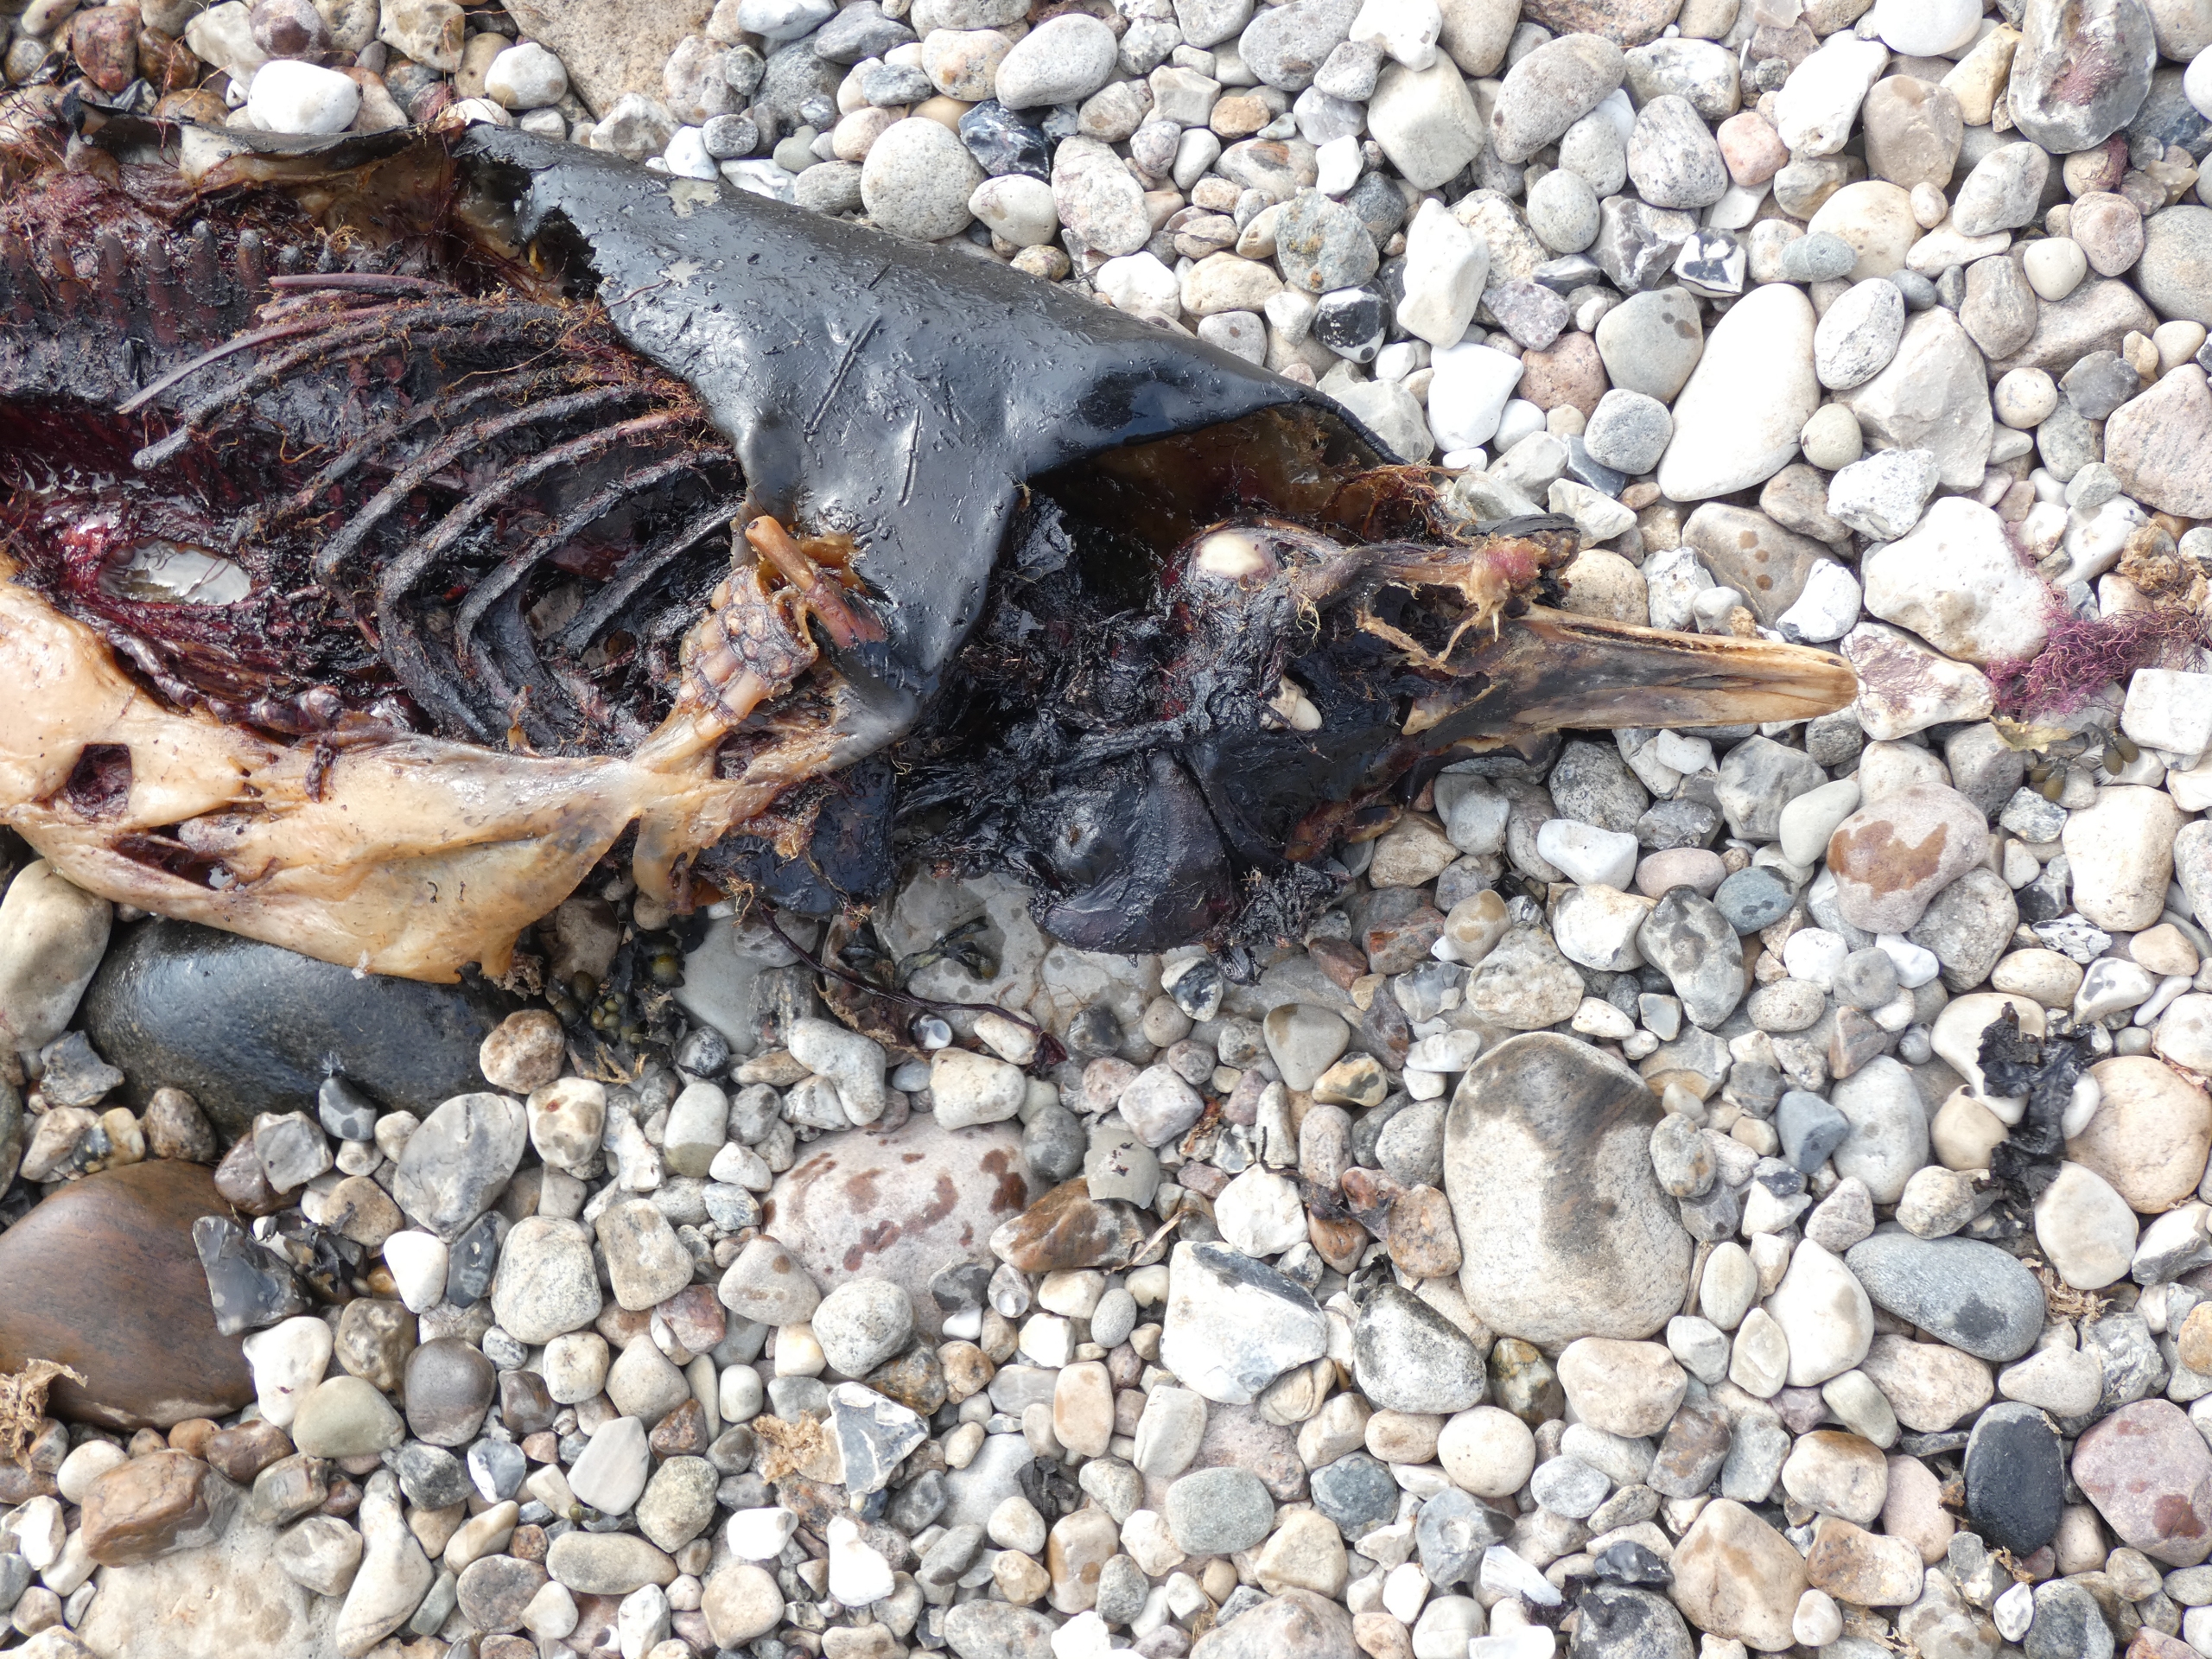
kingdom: Animalia
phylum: Chordata
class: Mammalia
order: Cetacea
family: Phocoenidae
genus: Phocoena
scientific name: Phocoena phocoena
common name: Marsvin
